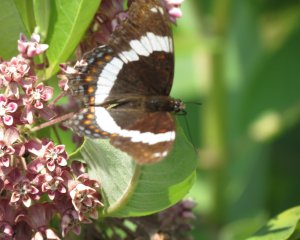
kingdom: Animalia
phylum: Arthropoda
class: Insecta
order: Lepidoptera
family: Nymphalidae
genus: Limenitis
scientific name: Limenitis arthemis
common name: Red-spotted Admiral
